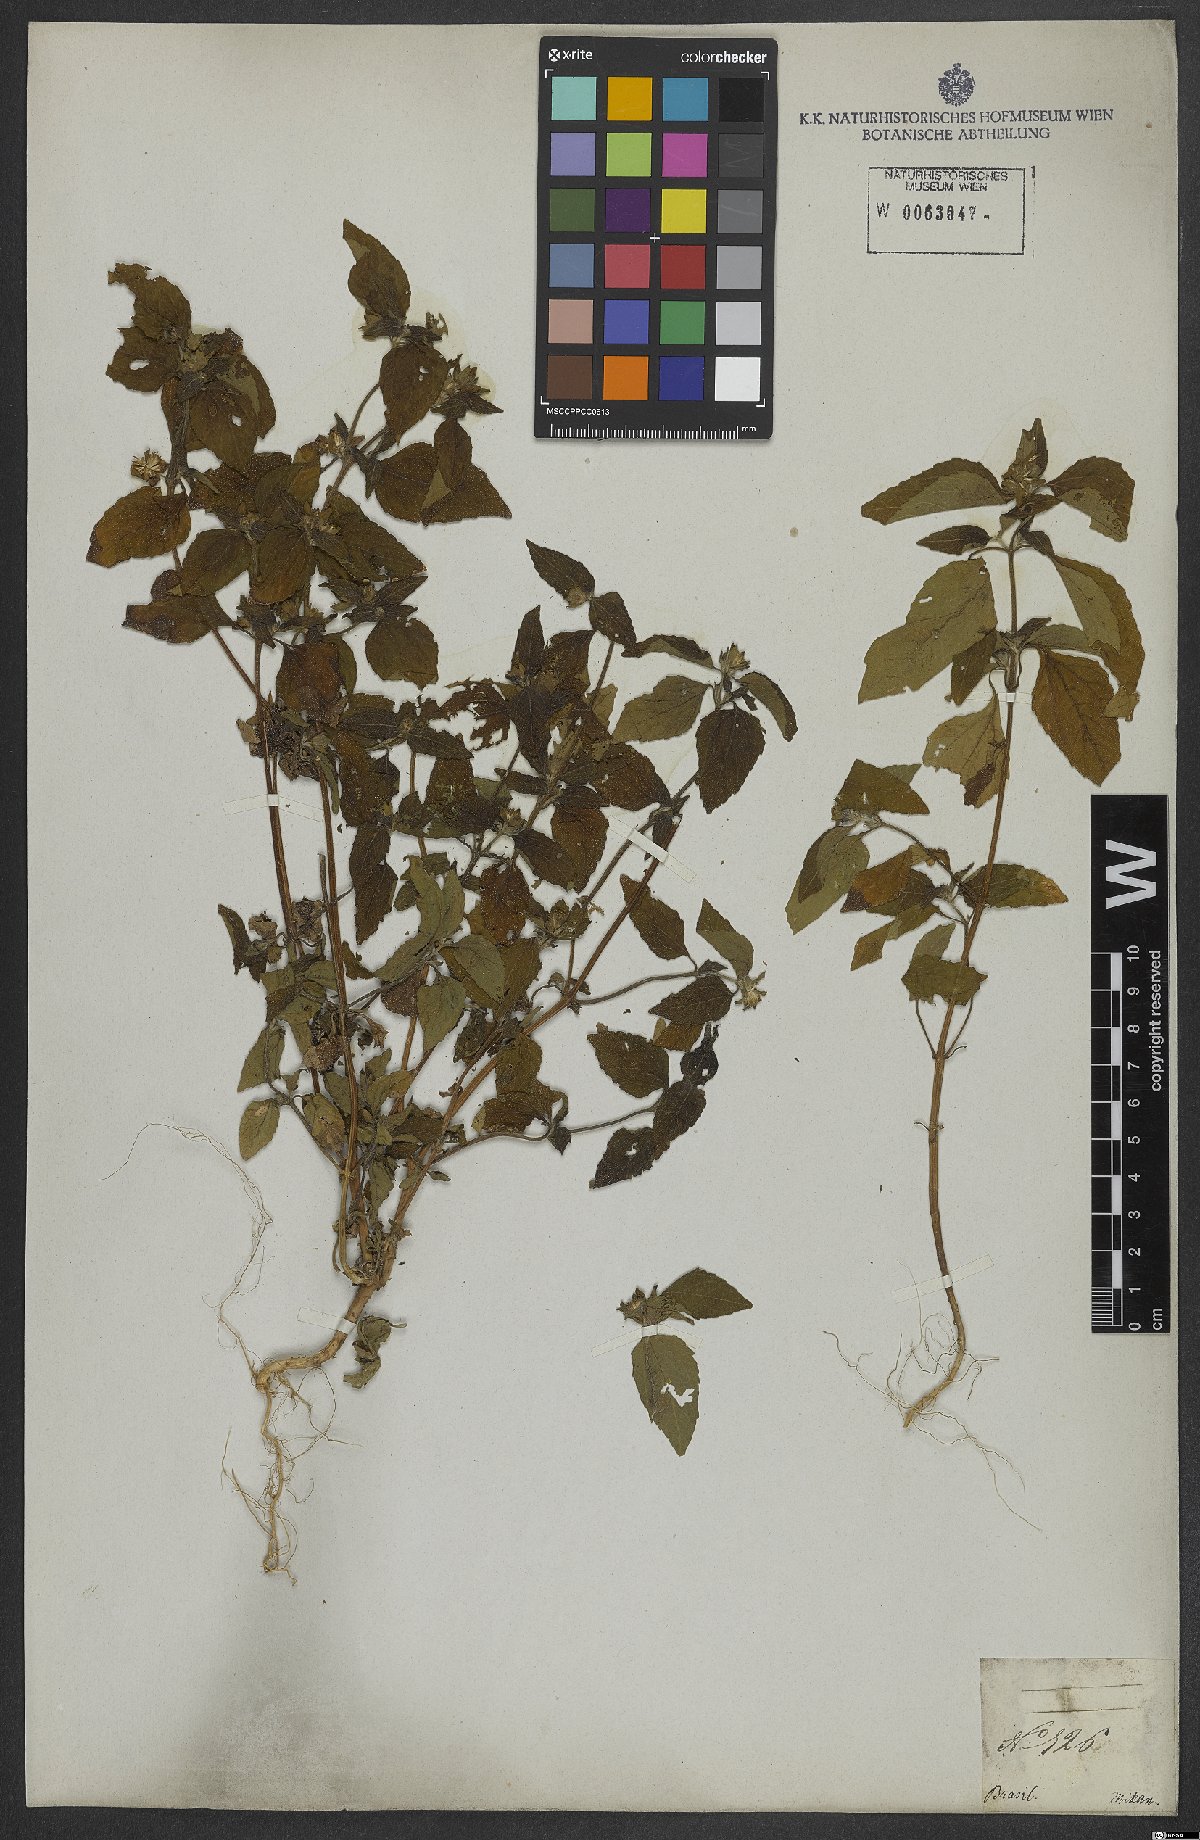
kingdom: Plantae
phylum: Tracheophyta
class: Magnoliopsida
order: Asterales
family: Asteraceae
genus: Eleutheranthera
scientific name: Eleutheranthera
